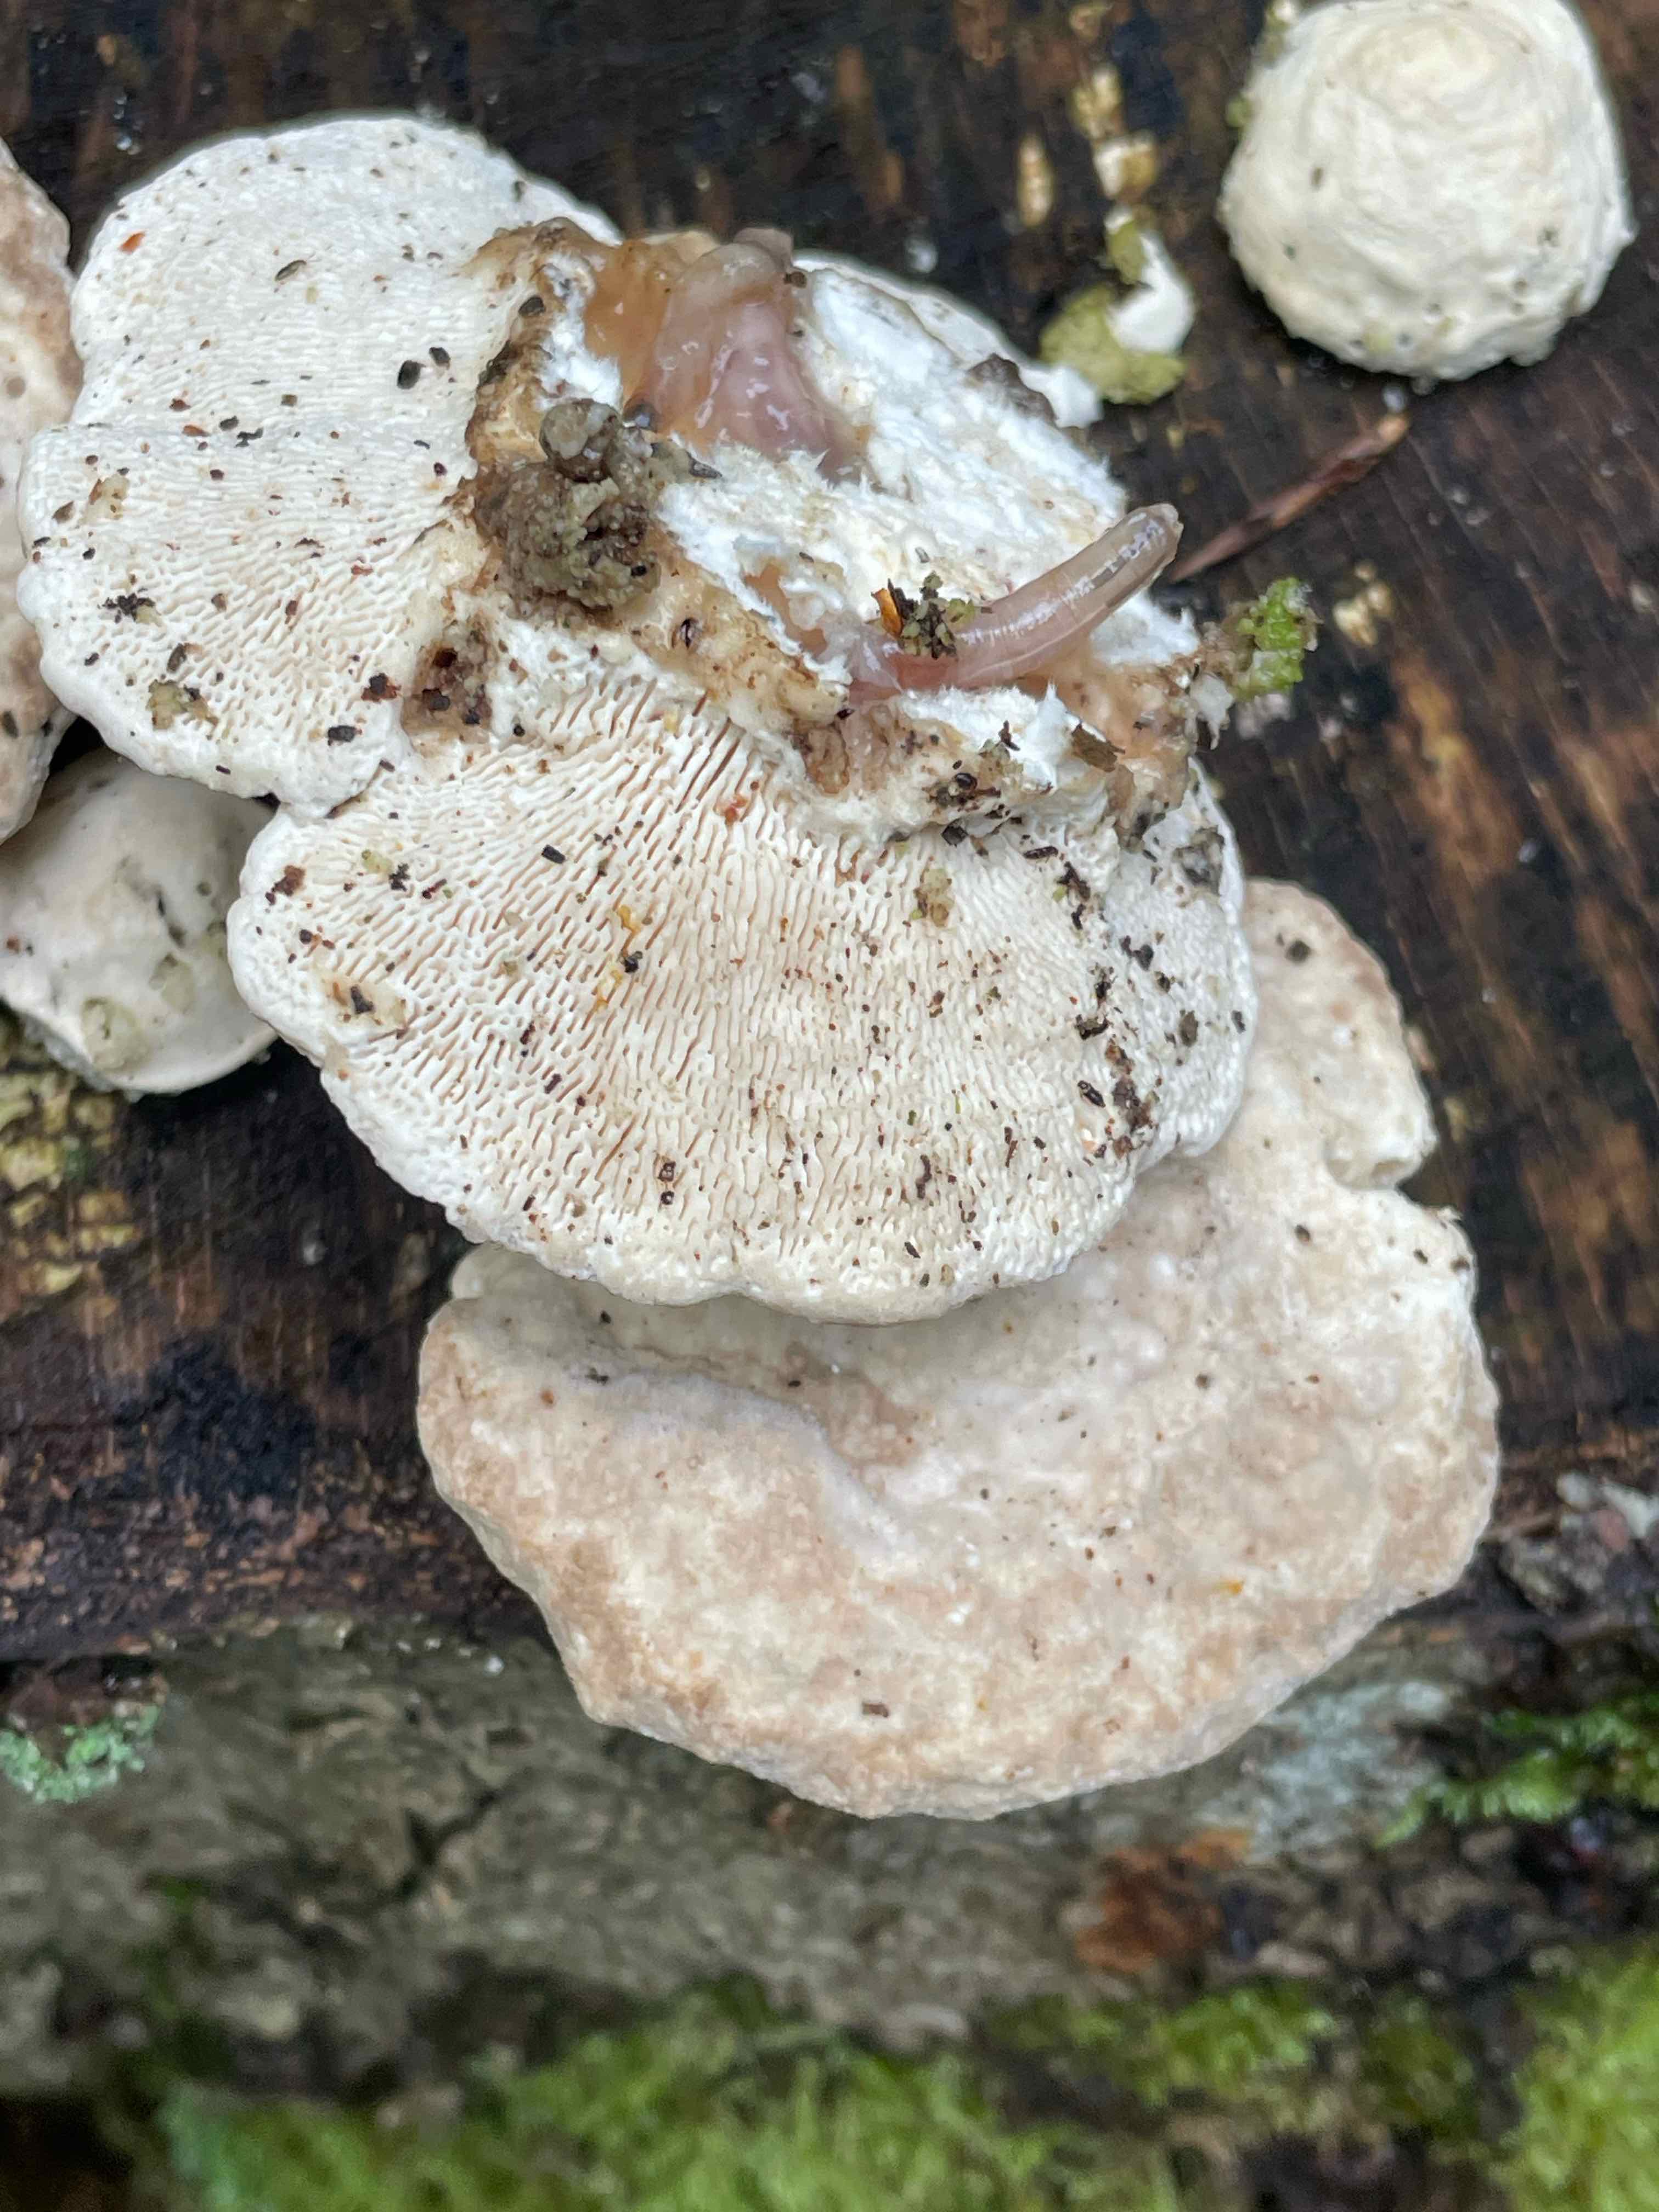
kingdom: Fungi
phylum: Basidiomycota
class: Agaricomycetes
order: Polyporales
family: Polyporaceae
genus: Trametes
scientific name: Trametes gibbosa
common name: puklet læderporesvamp
